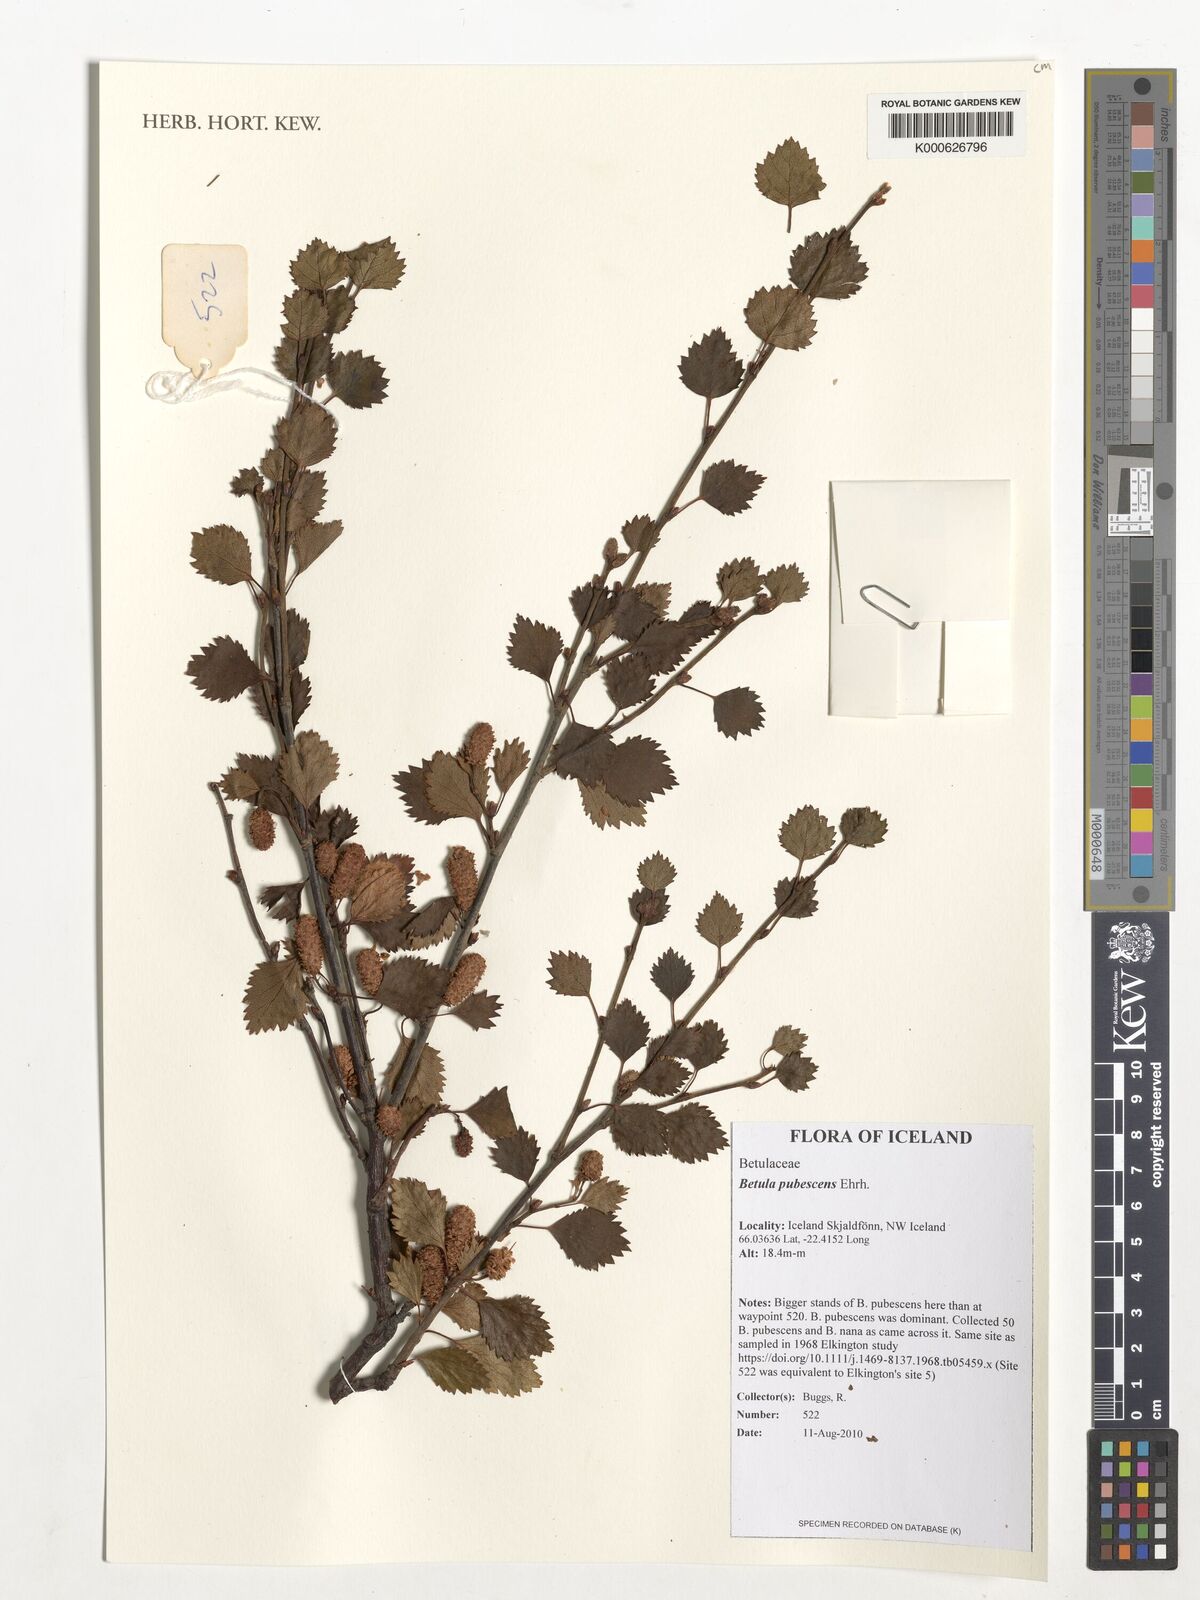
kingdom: Plantae
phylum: Tracheophyta
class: Magnoliopsida
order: Fagales
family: Betulaceae
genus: Betula
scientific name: Betula pubescens
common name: Downy birch
